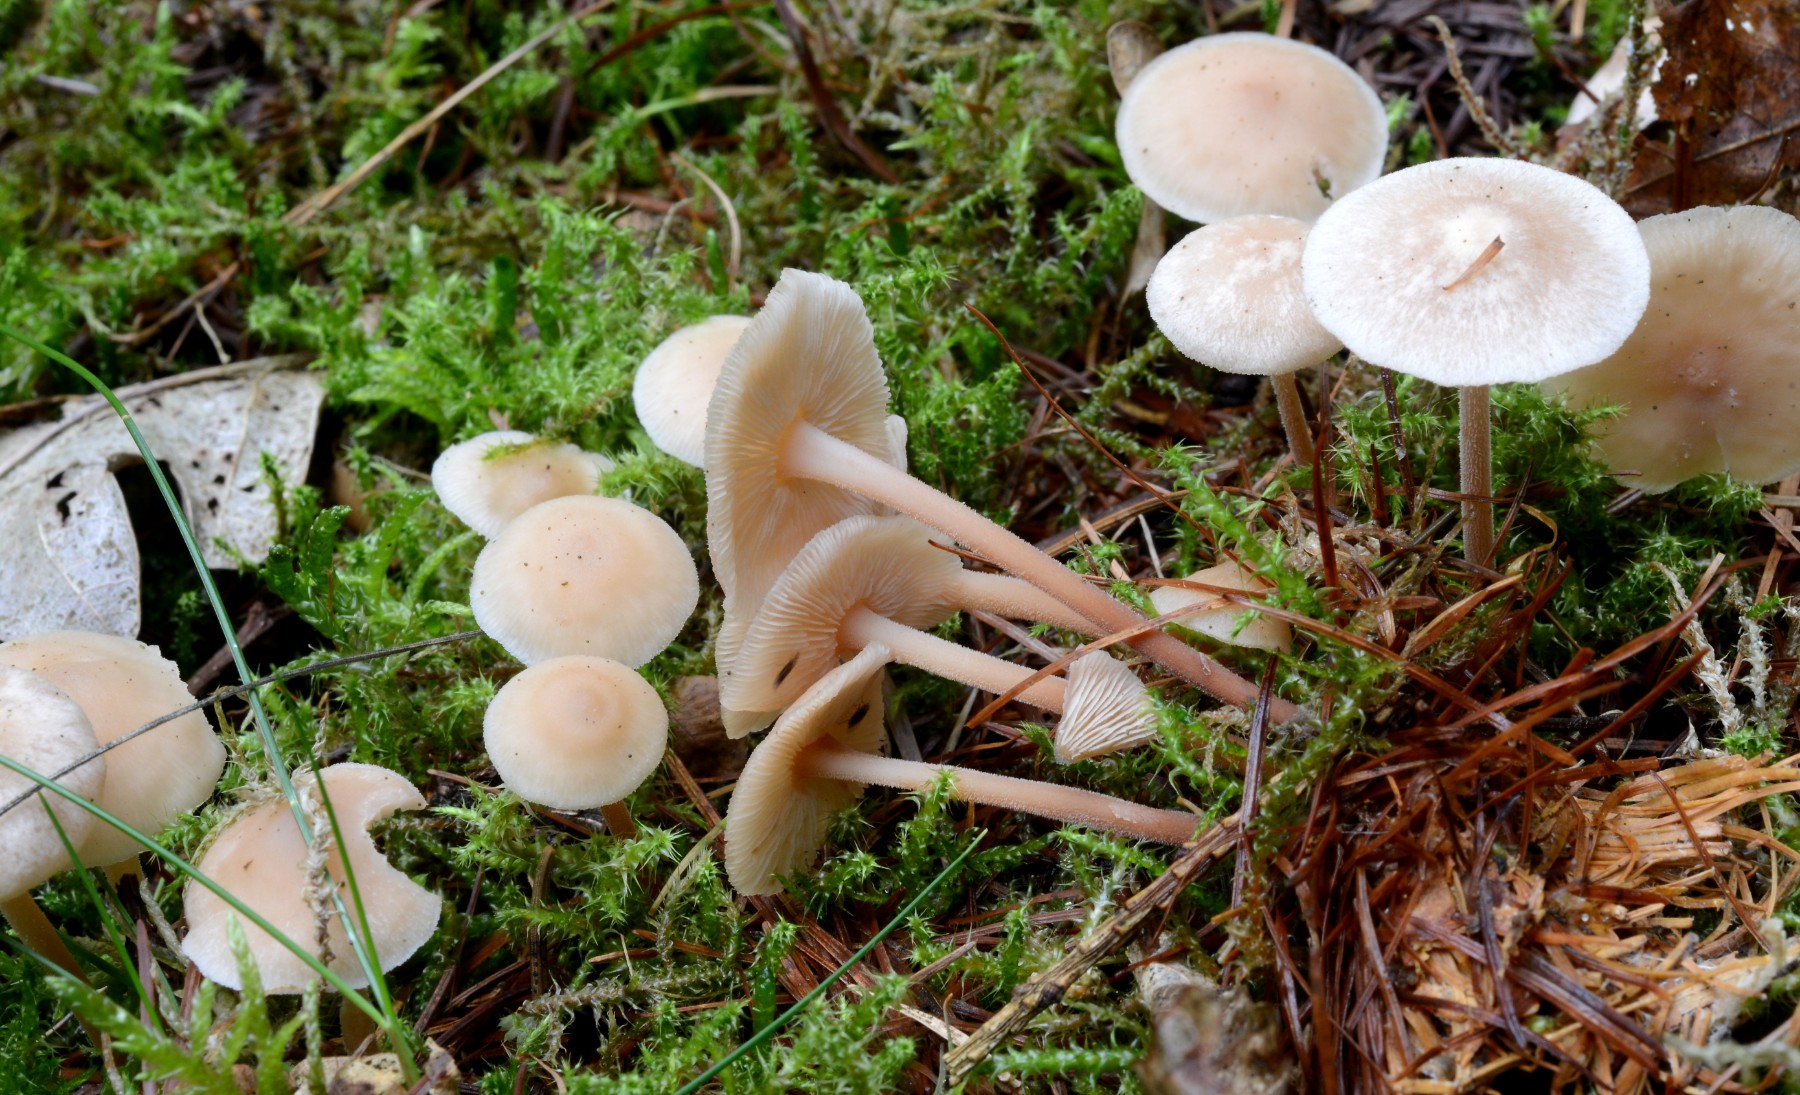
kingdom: Fungi
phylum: Basidiomycota
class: Agaricomycetes
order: Agaricales
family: Omphalotaceae
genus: Collybiopsis
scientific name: Collybiopsis confluens
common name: knippe-fladhat
